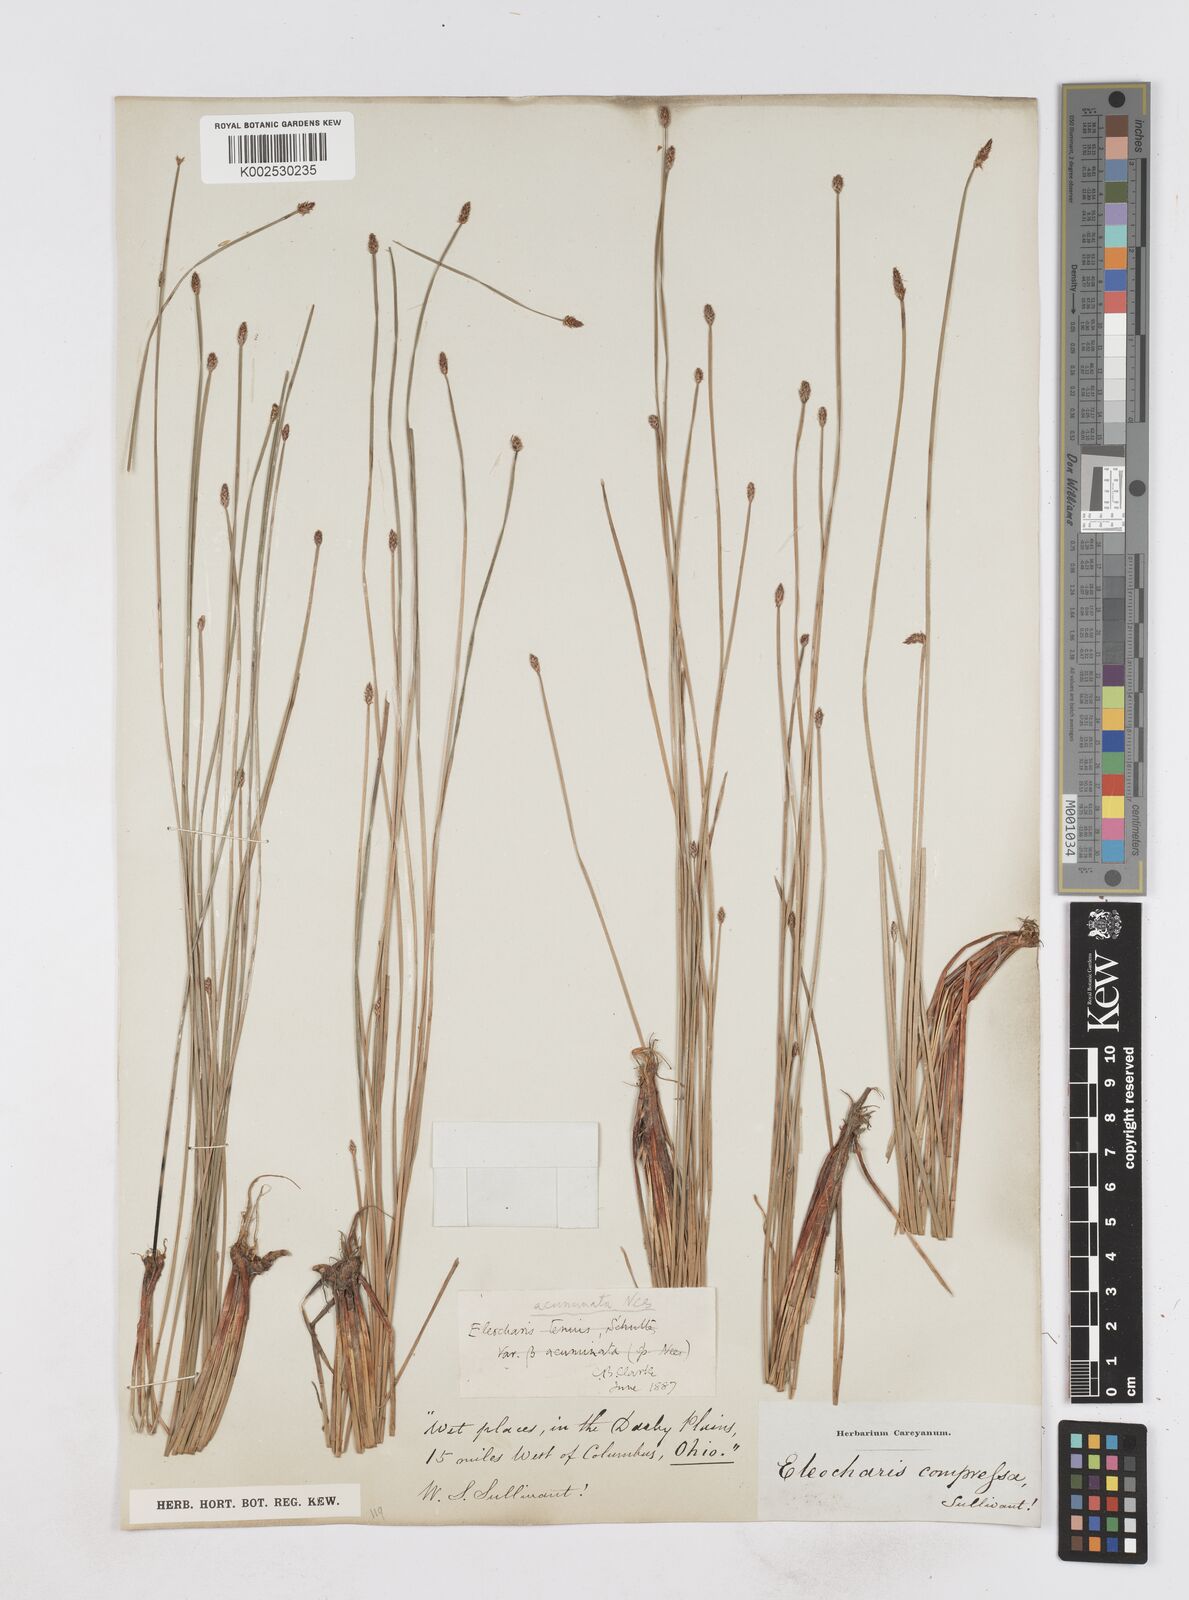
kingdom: Plantae
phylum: Tracheophyta
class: Liliopsida
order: Poales
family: Cyperaceae
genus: Eleocharis
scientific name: Eleocharis compressa
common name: Flat-stem spike-rush
